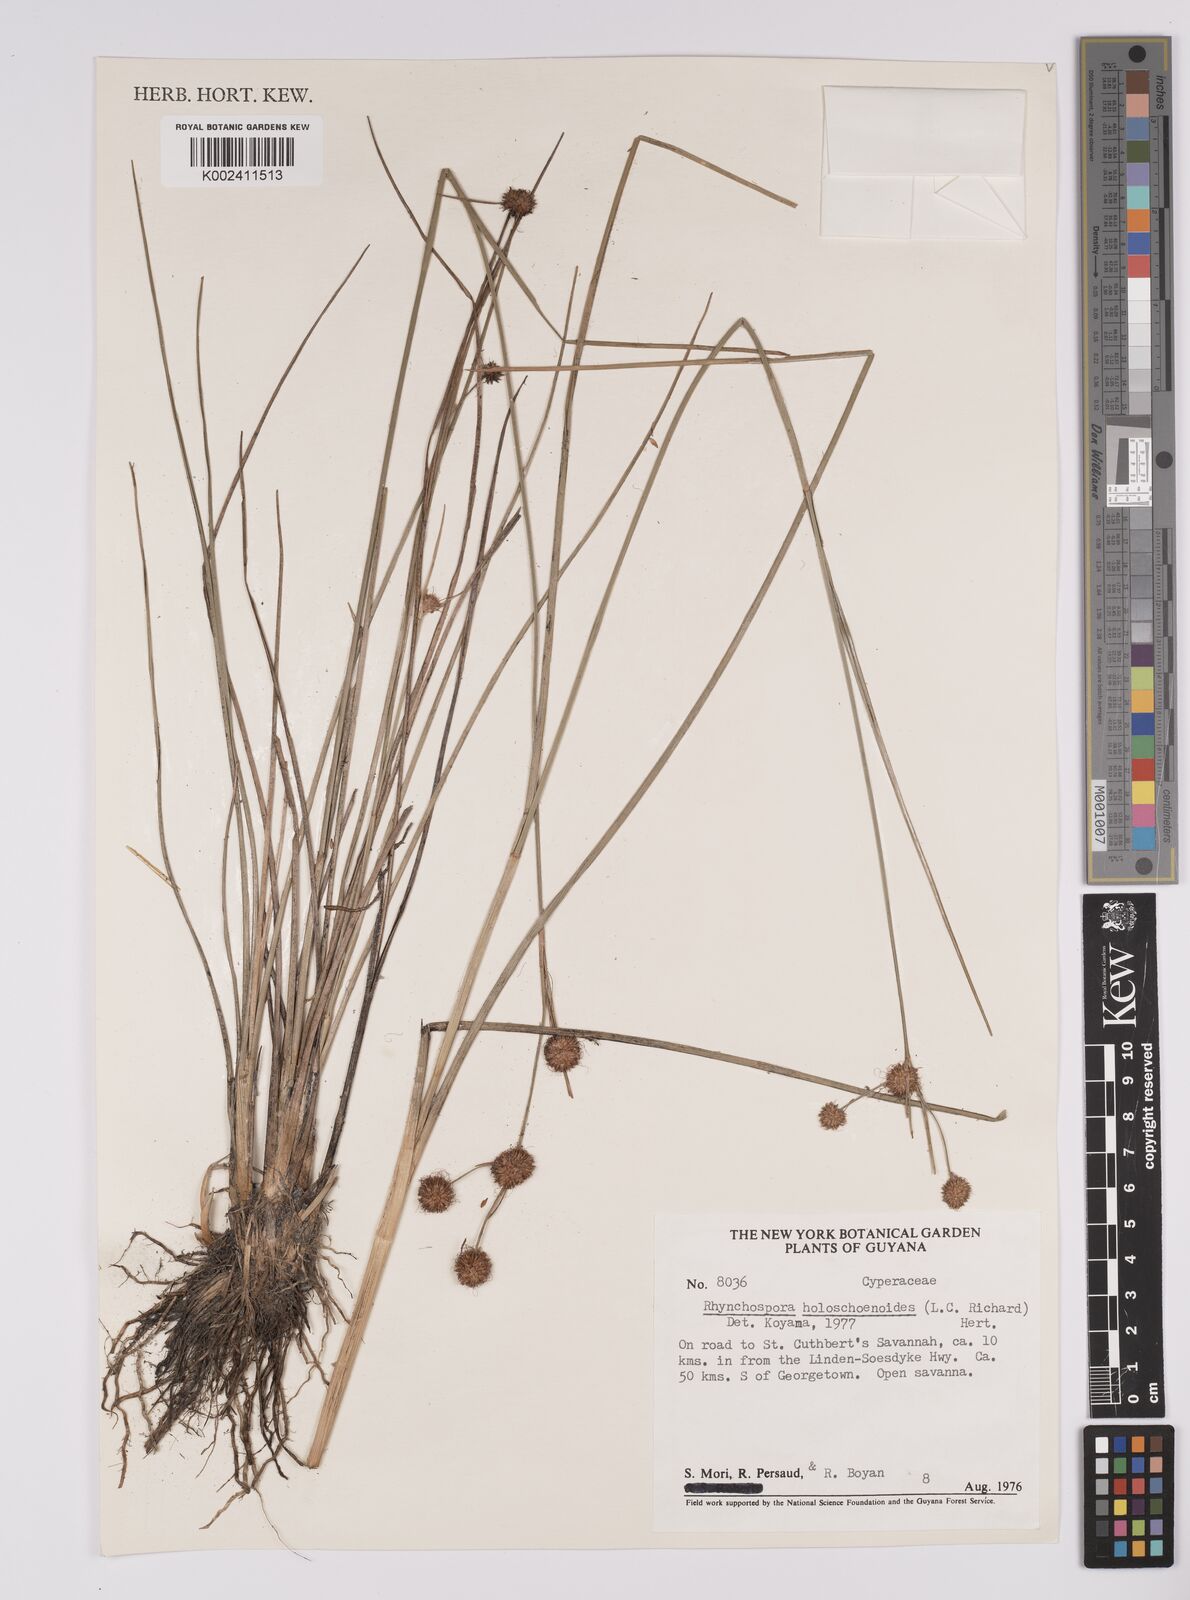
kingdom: Plantae
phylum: Tracheophyta
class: Liliopsida
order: Poales
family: Cyperaceae
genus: Rhynchospora
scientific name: Rhynchospora holoschoenoides
